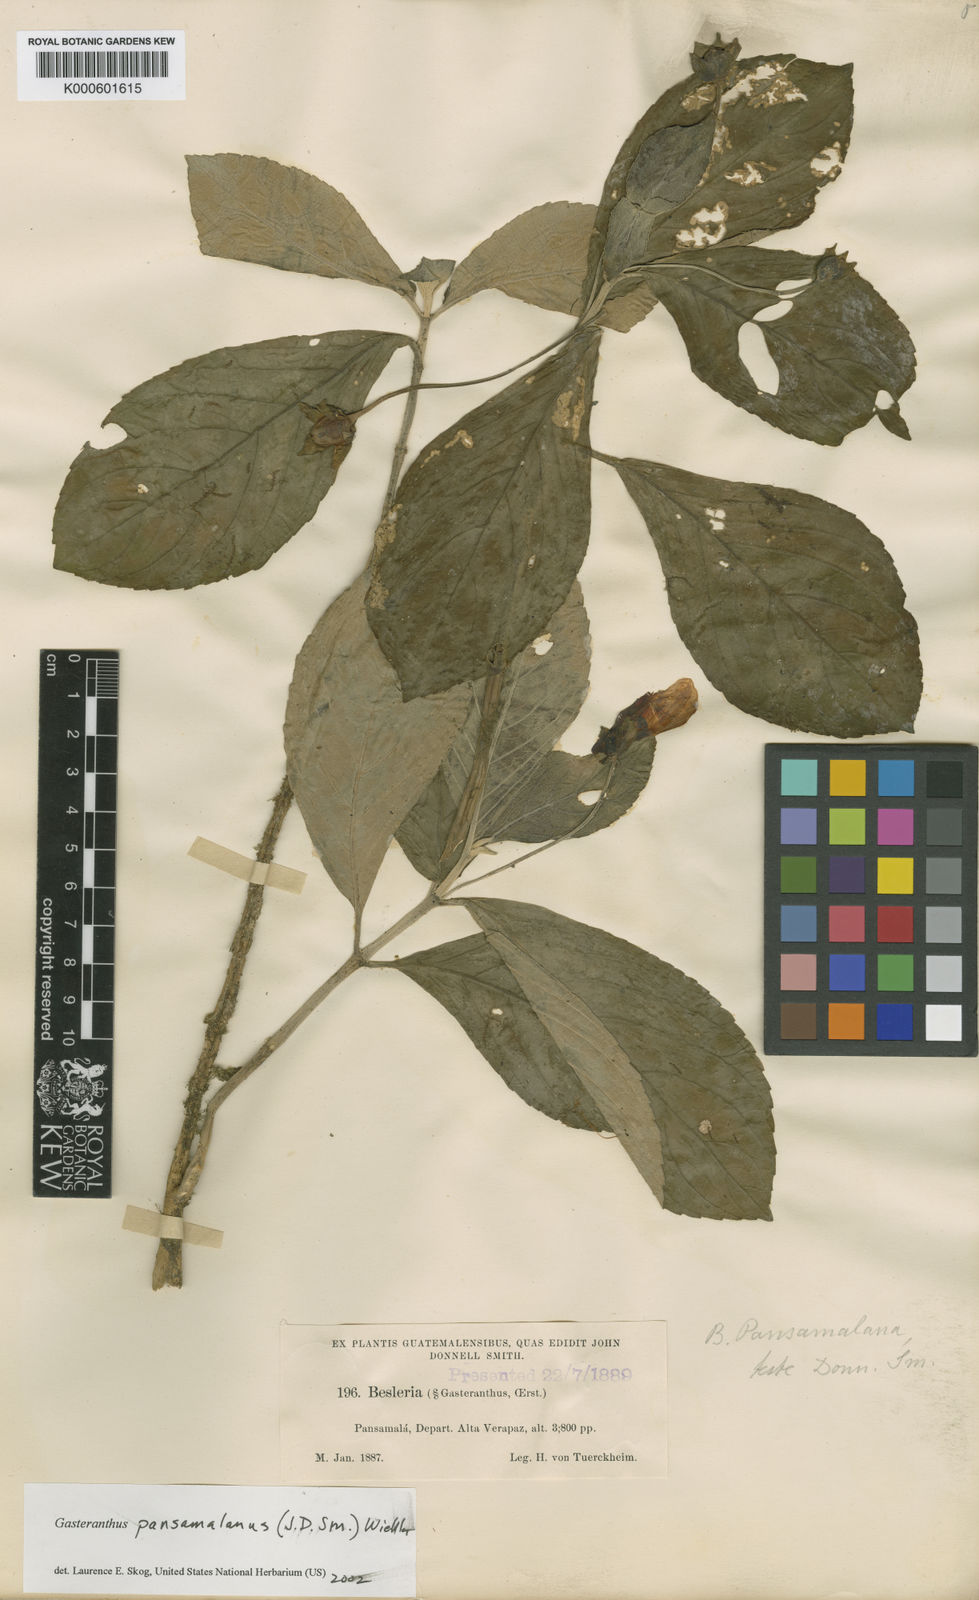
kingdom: Plantae
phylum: Tracheophyta
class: Magnoliopsida
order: Lamiales
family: Gesneriaceae
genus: Gasteranthus
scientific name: Gasteranthus pansamalanus
